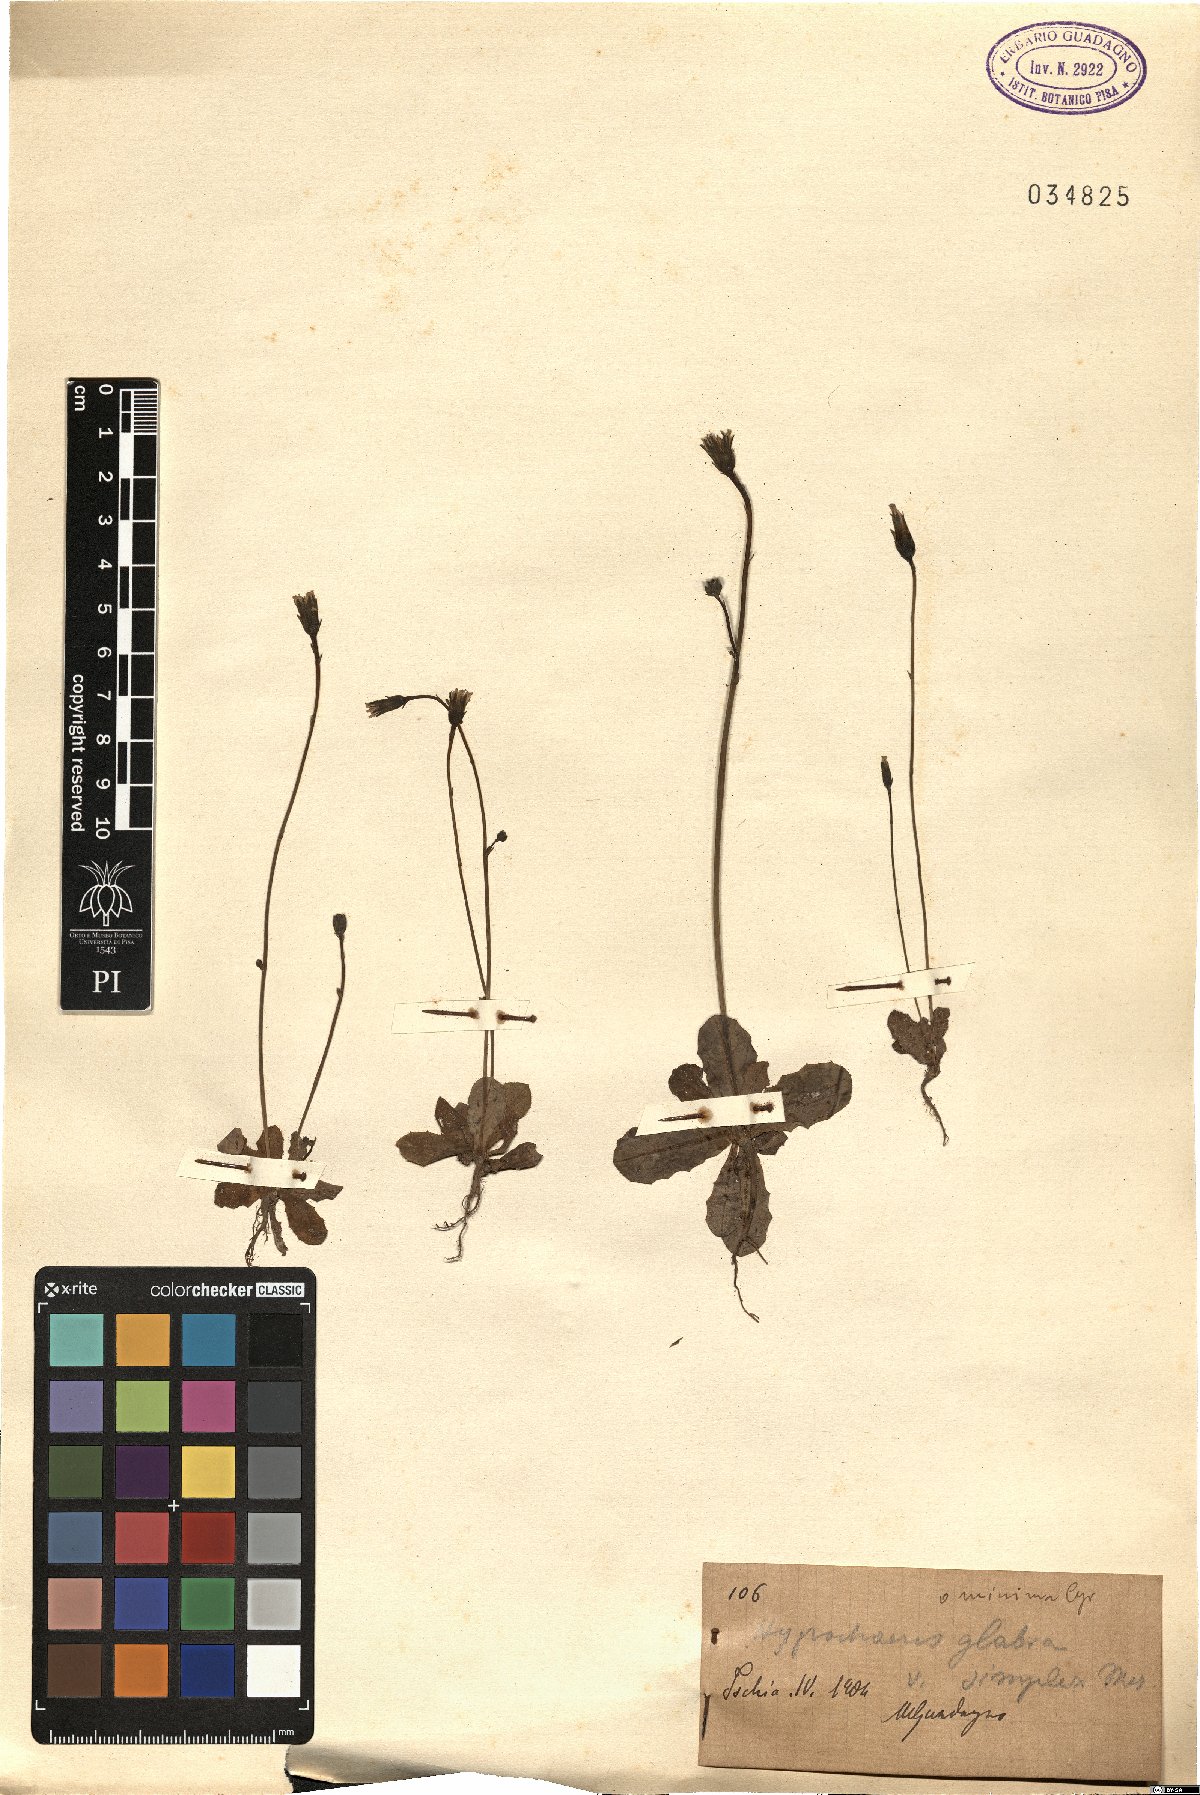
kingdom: Plantae
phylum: Tracheophyta
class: Magnoliopsida
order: Asterales
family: Asteraceae
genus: Hypochaeris
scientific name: Hypochaeris glabra
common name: Smooth catsear
